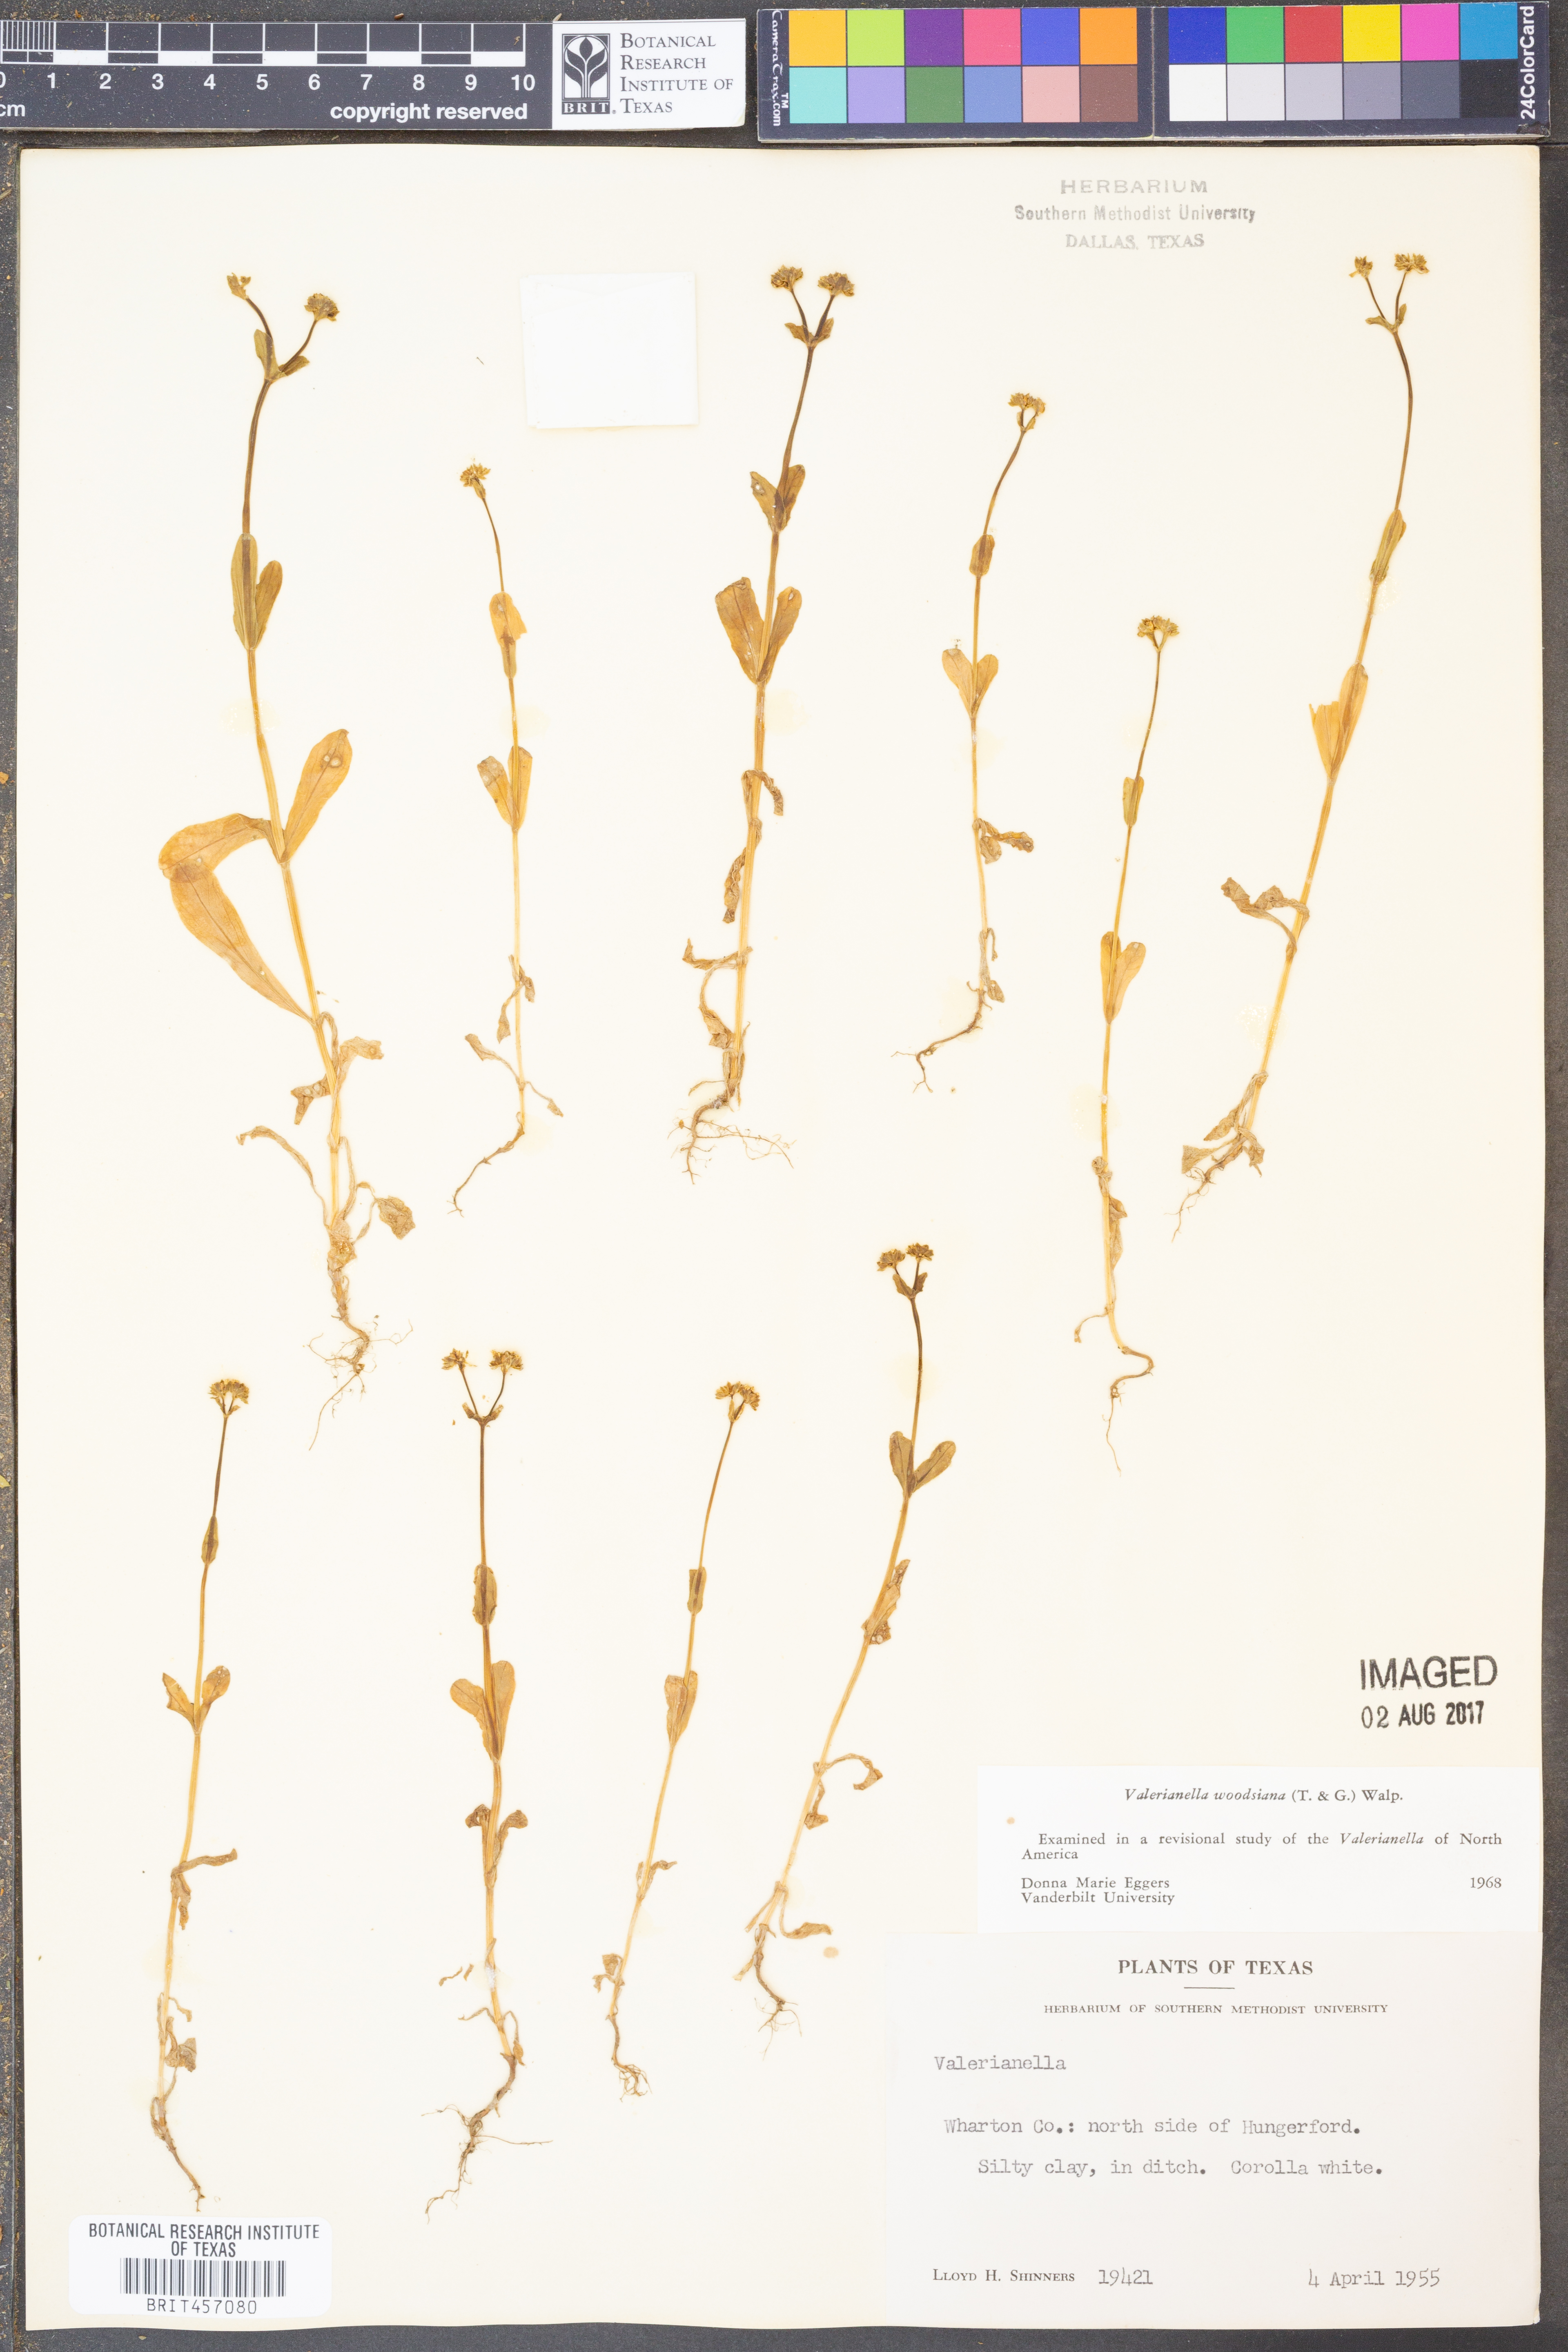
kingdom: Plantae
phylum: Tracheophyta
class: Magnoliopsida
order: Dipsacales
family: Caprifoliaceae
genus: Valerianella
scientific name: Valerianella radiata
